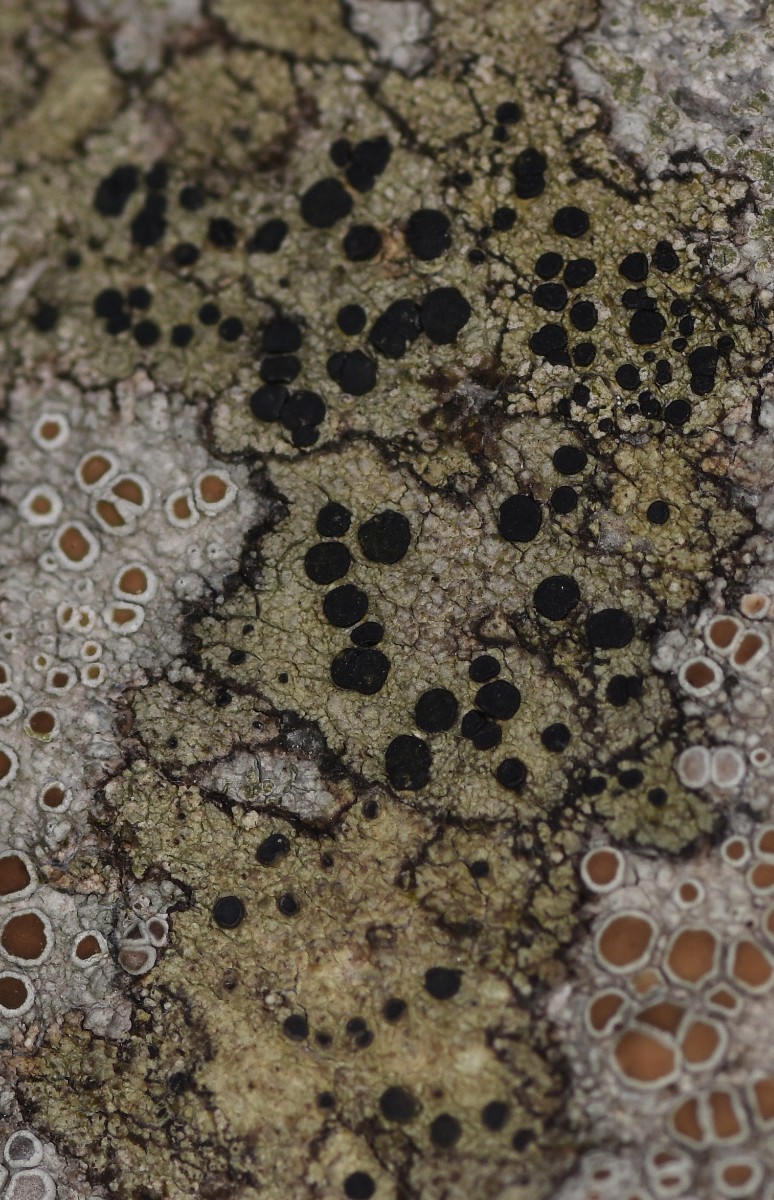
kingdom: Fungi
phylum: Ascomycota
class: Lecanoromycetes
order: Lecanorales
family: Lecanoraceae
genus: Lecidella
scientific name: Lecidella elaeochroma
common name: grågrøn skivelav
